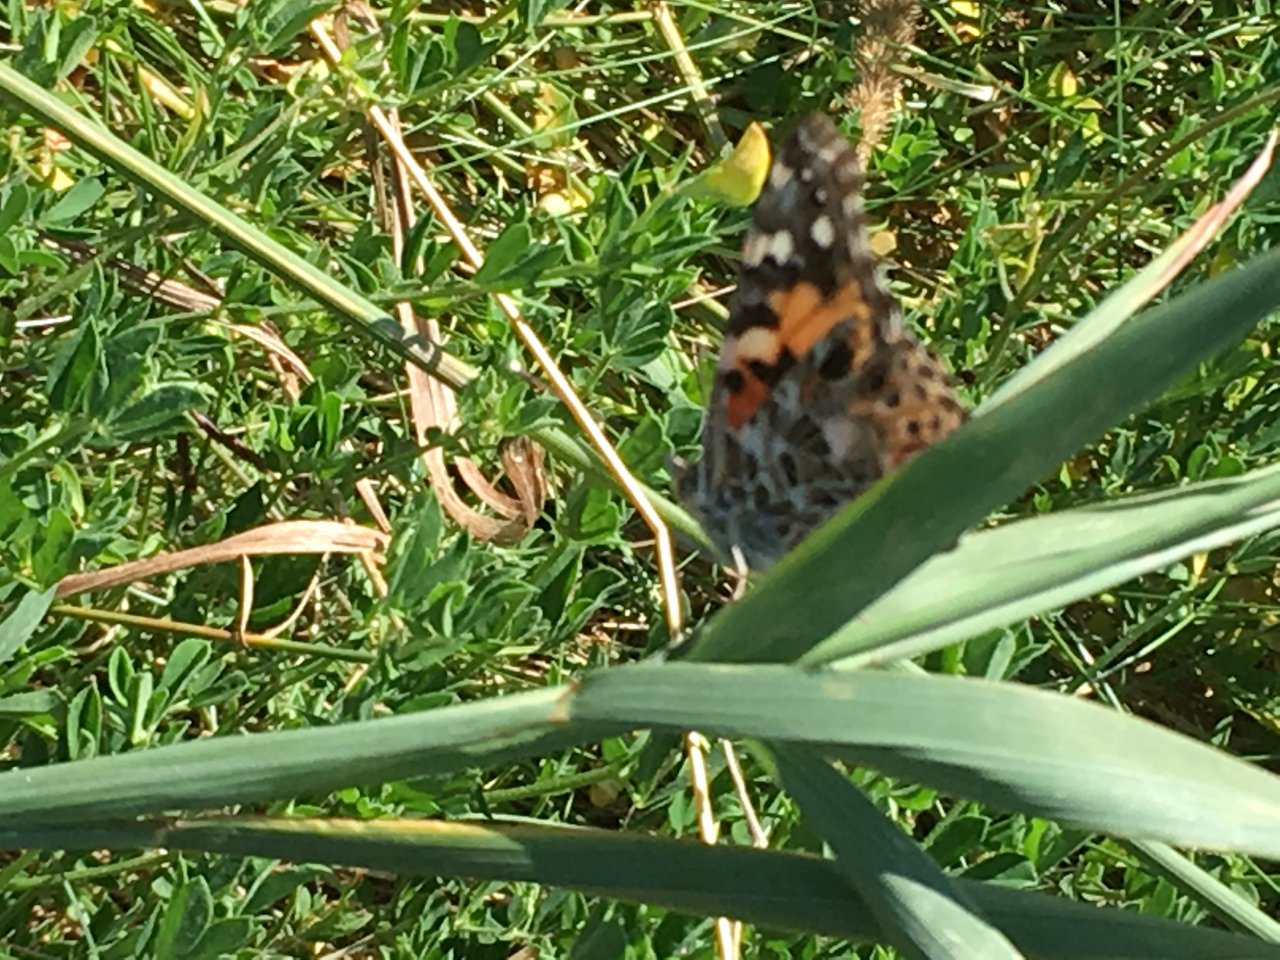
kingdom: Animalia
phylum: Arthropoda
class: Insecta
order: Lepidoptera
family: Nymphalidae
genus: Vanessa
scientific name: Vanessa cardui
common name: Painted Lady
